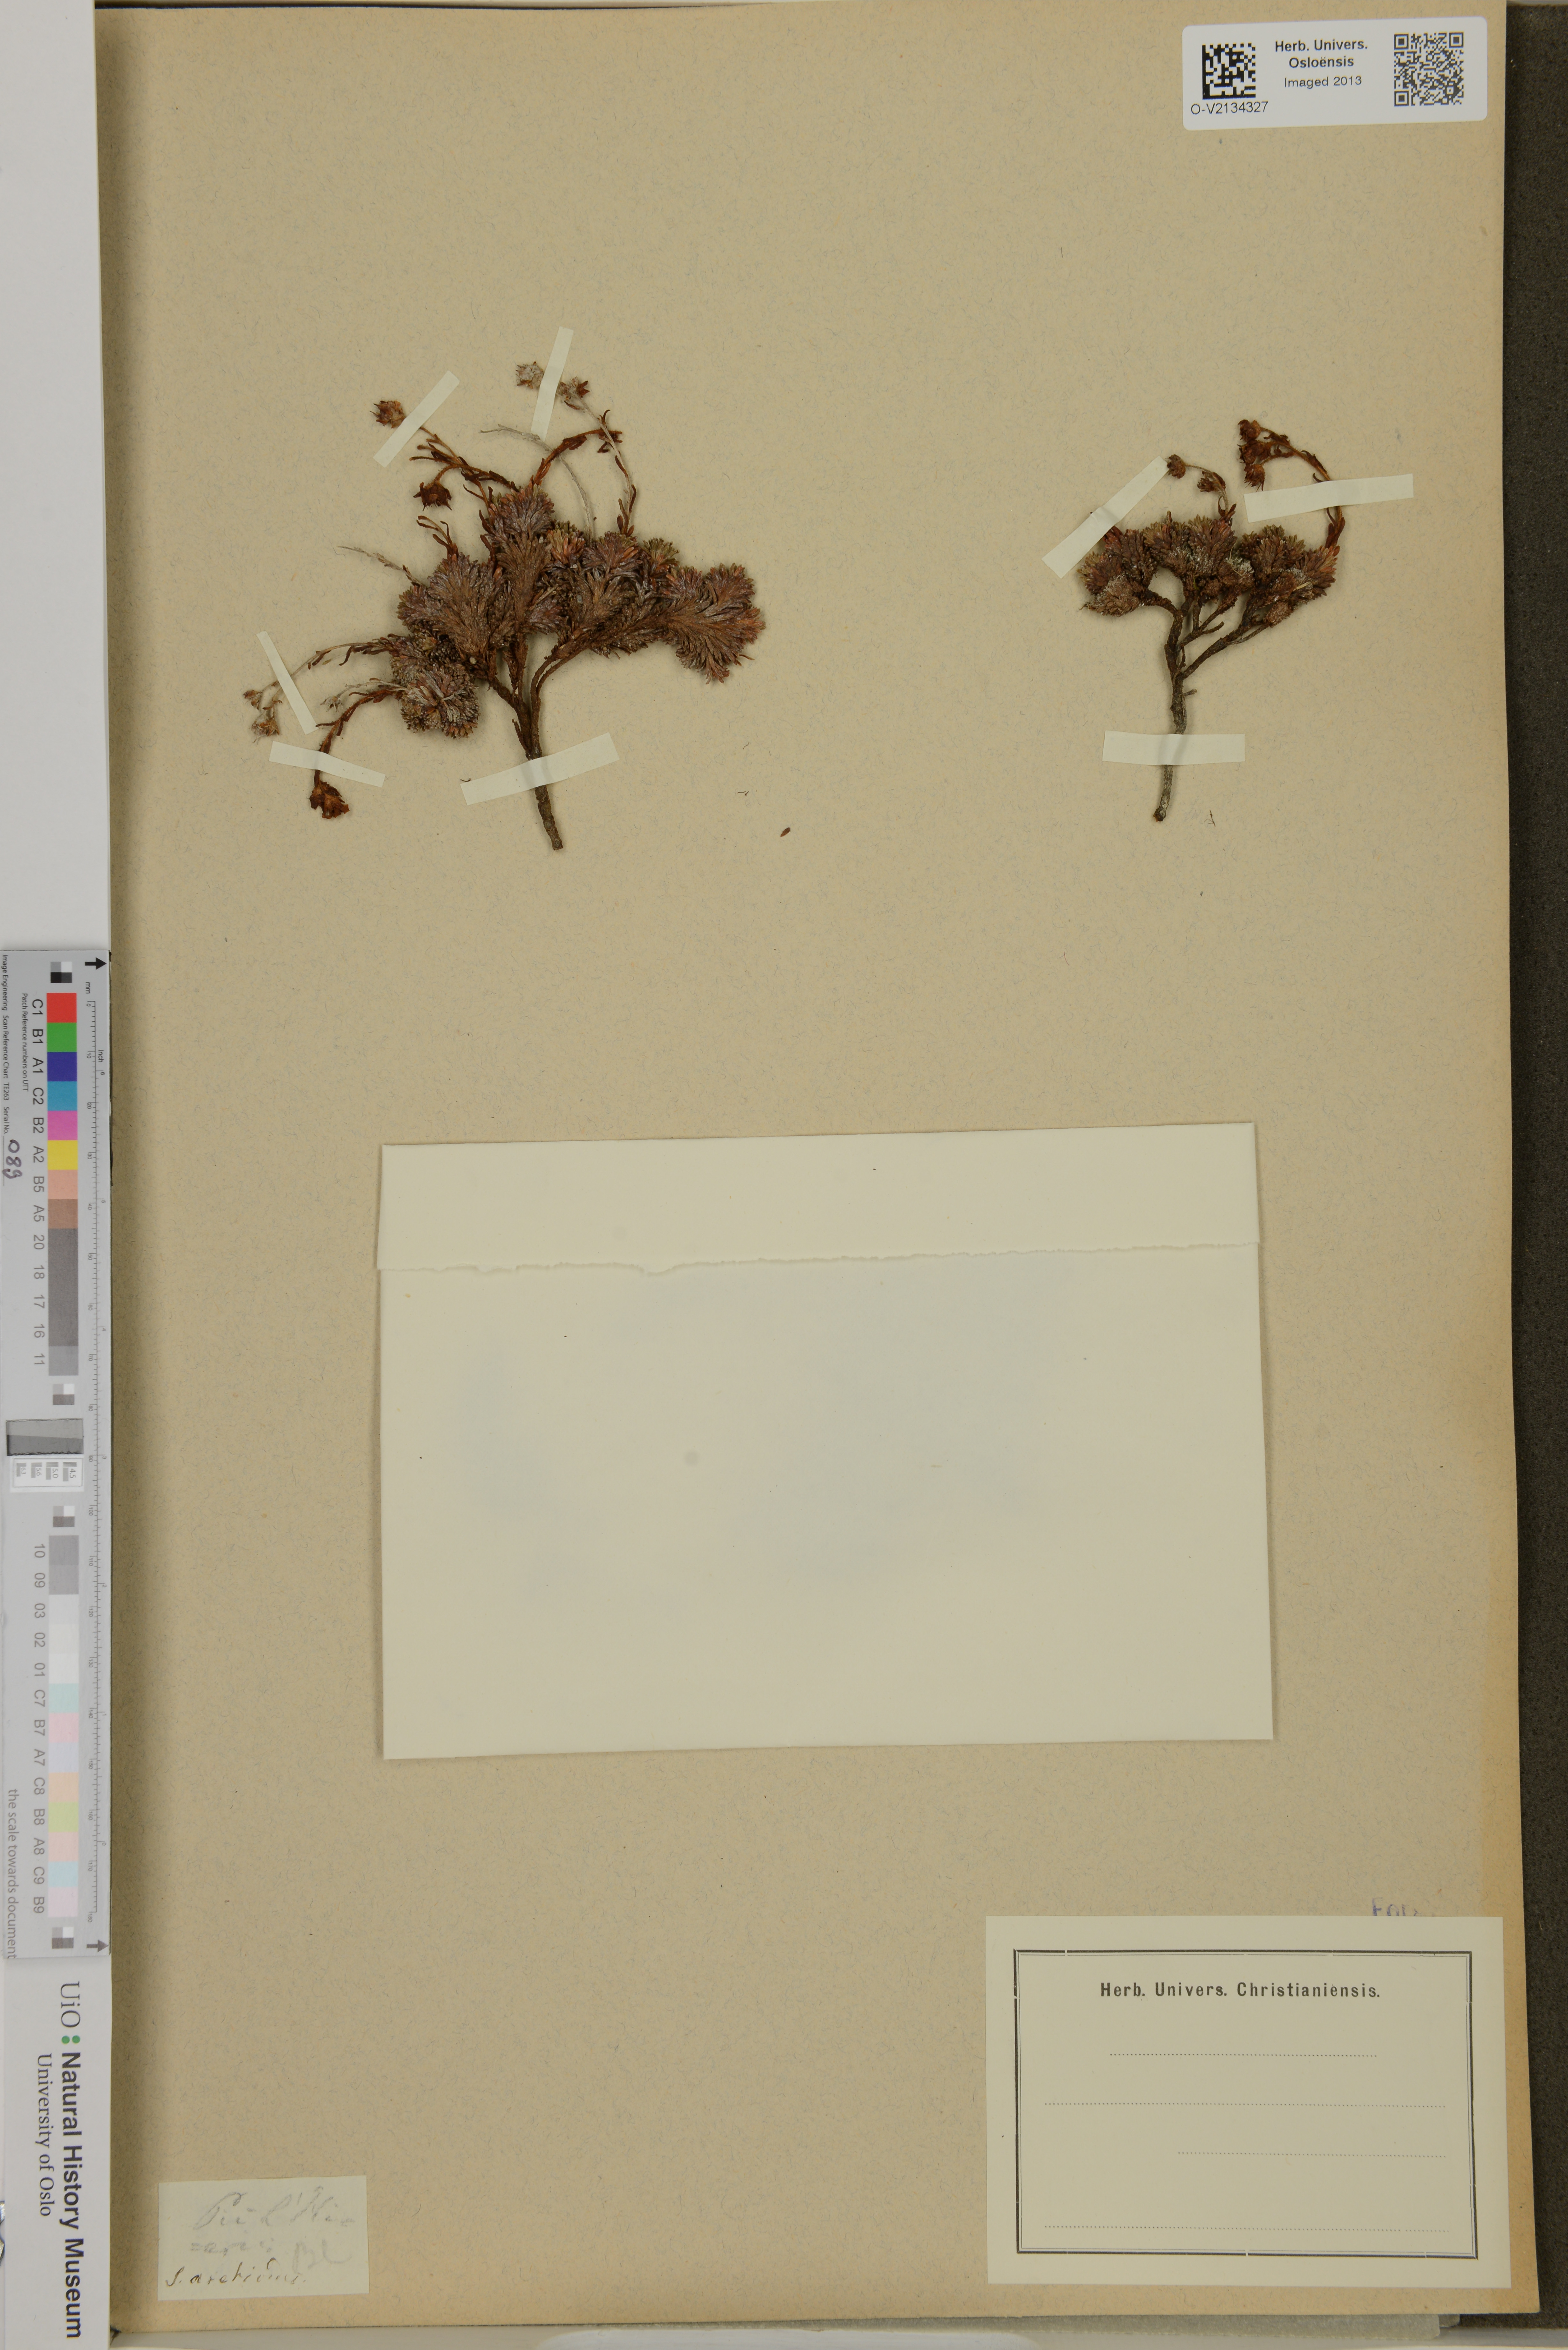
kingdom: Plantae
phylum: Tracheophyta
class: Magnoliopsida
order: Saxifragales
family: Saxifragaceae
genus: Saxifraga
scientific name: Saxifraga aretioides
